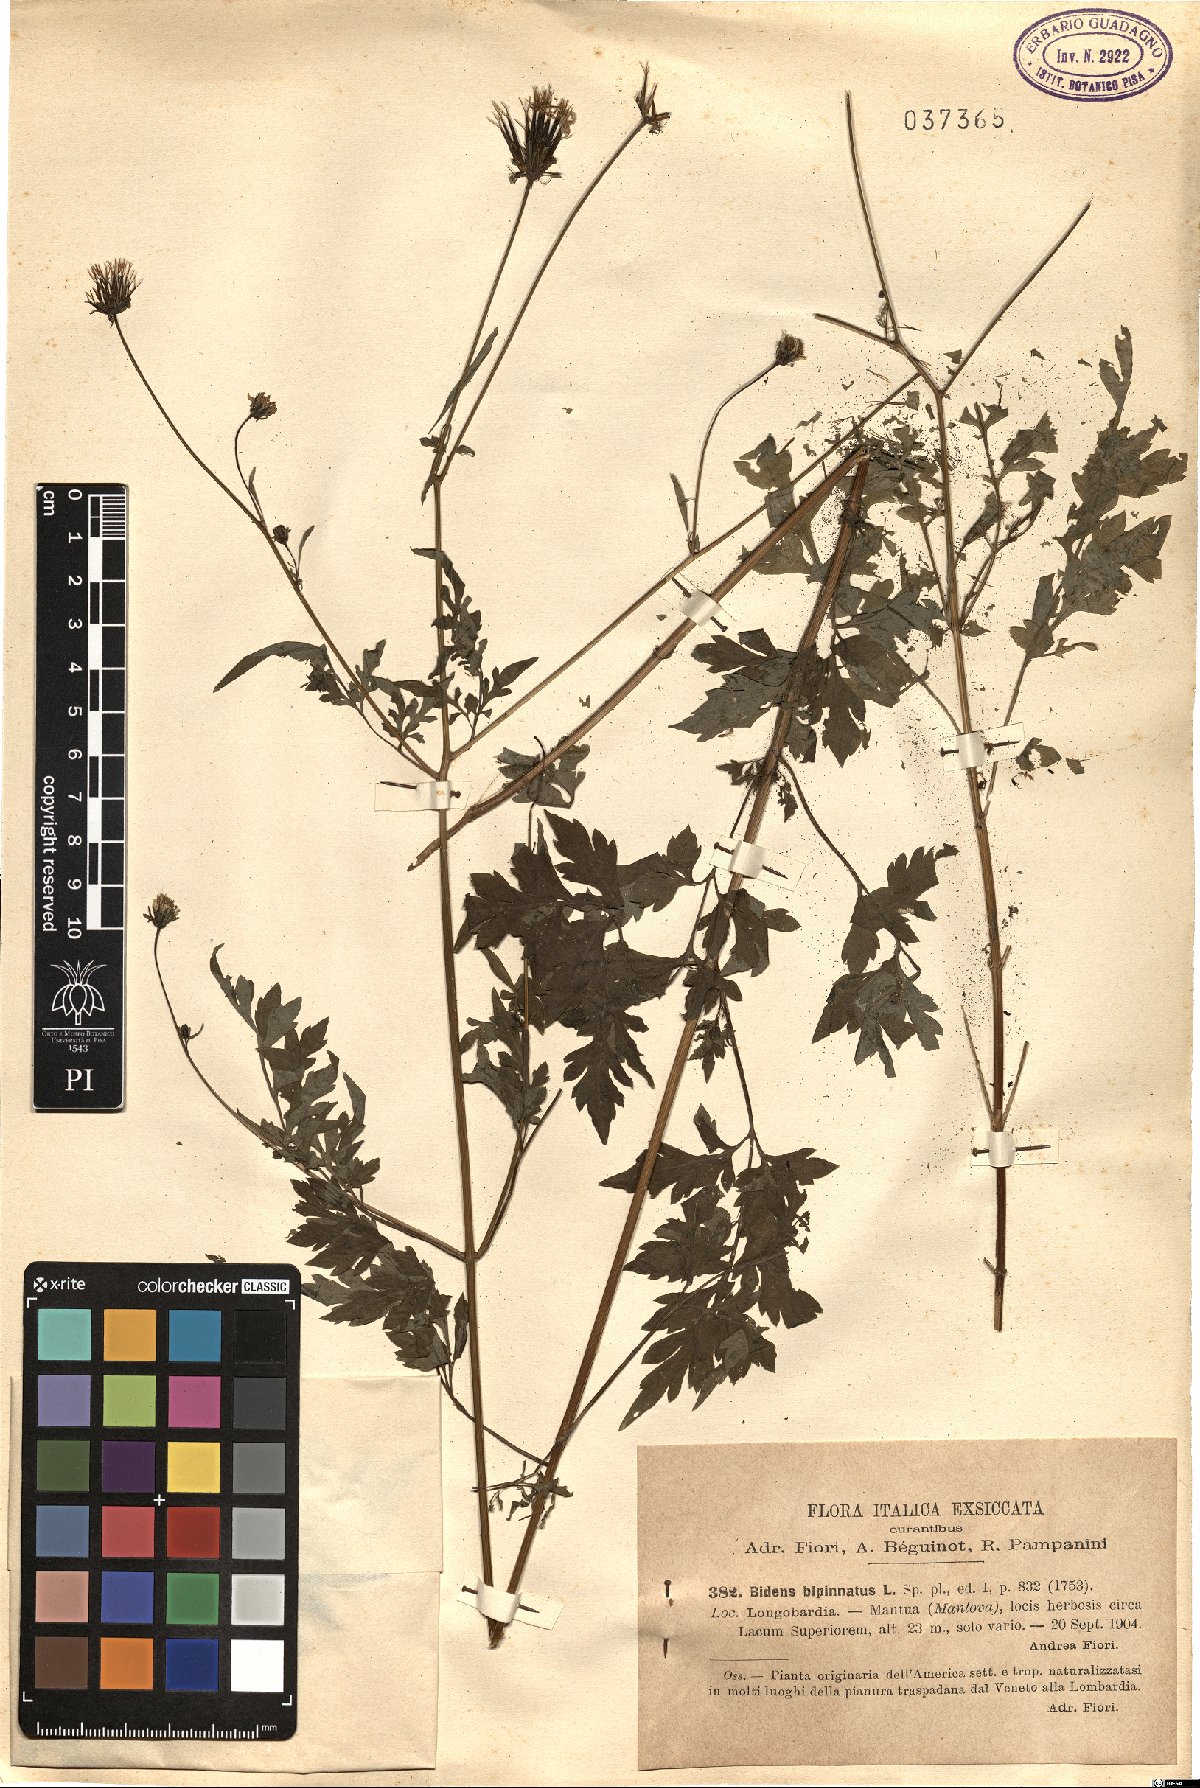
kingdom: Plantae
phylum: Tracheophyta
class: Magnoliopsida
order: Asterales
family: Asteraceae
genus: Bidens
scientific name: Bidens bipinnata
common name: Spanish-needles
